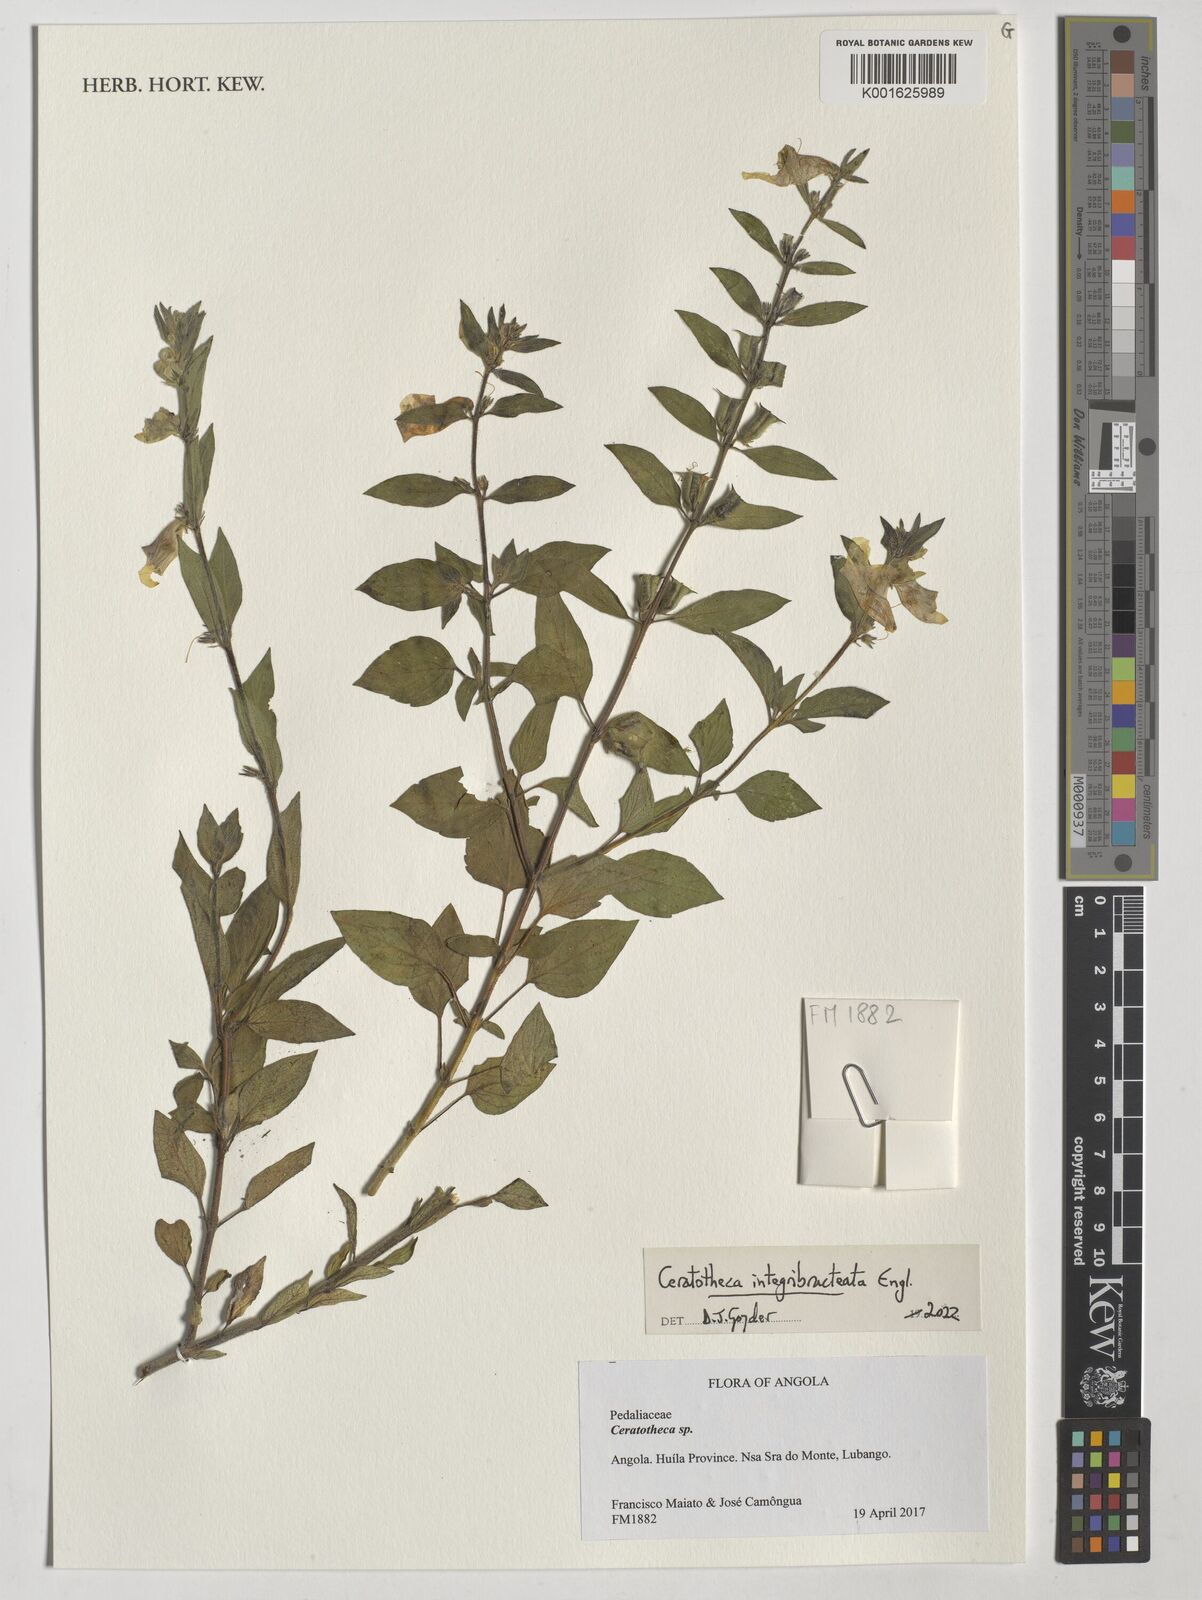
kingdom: Plantae
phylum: Tracheophyta
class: Magnoliopsida
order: Lamiales
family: Pedaliaceae
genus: Sesamum
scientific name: Sesamum integribracteatum
